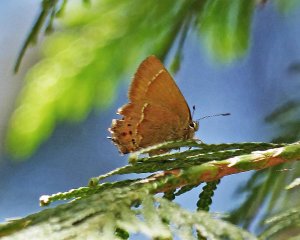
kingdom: Animalia
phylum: Arthropoda
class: Insecta
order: Lepidoptera
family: Lycaenidae
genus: Mitoura
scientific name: Mitoura nelsoni
